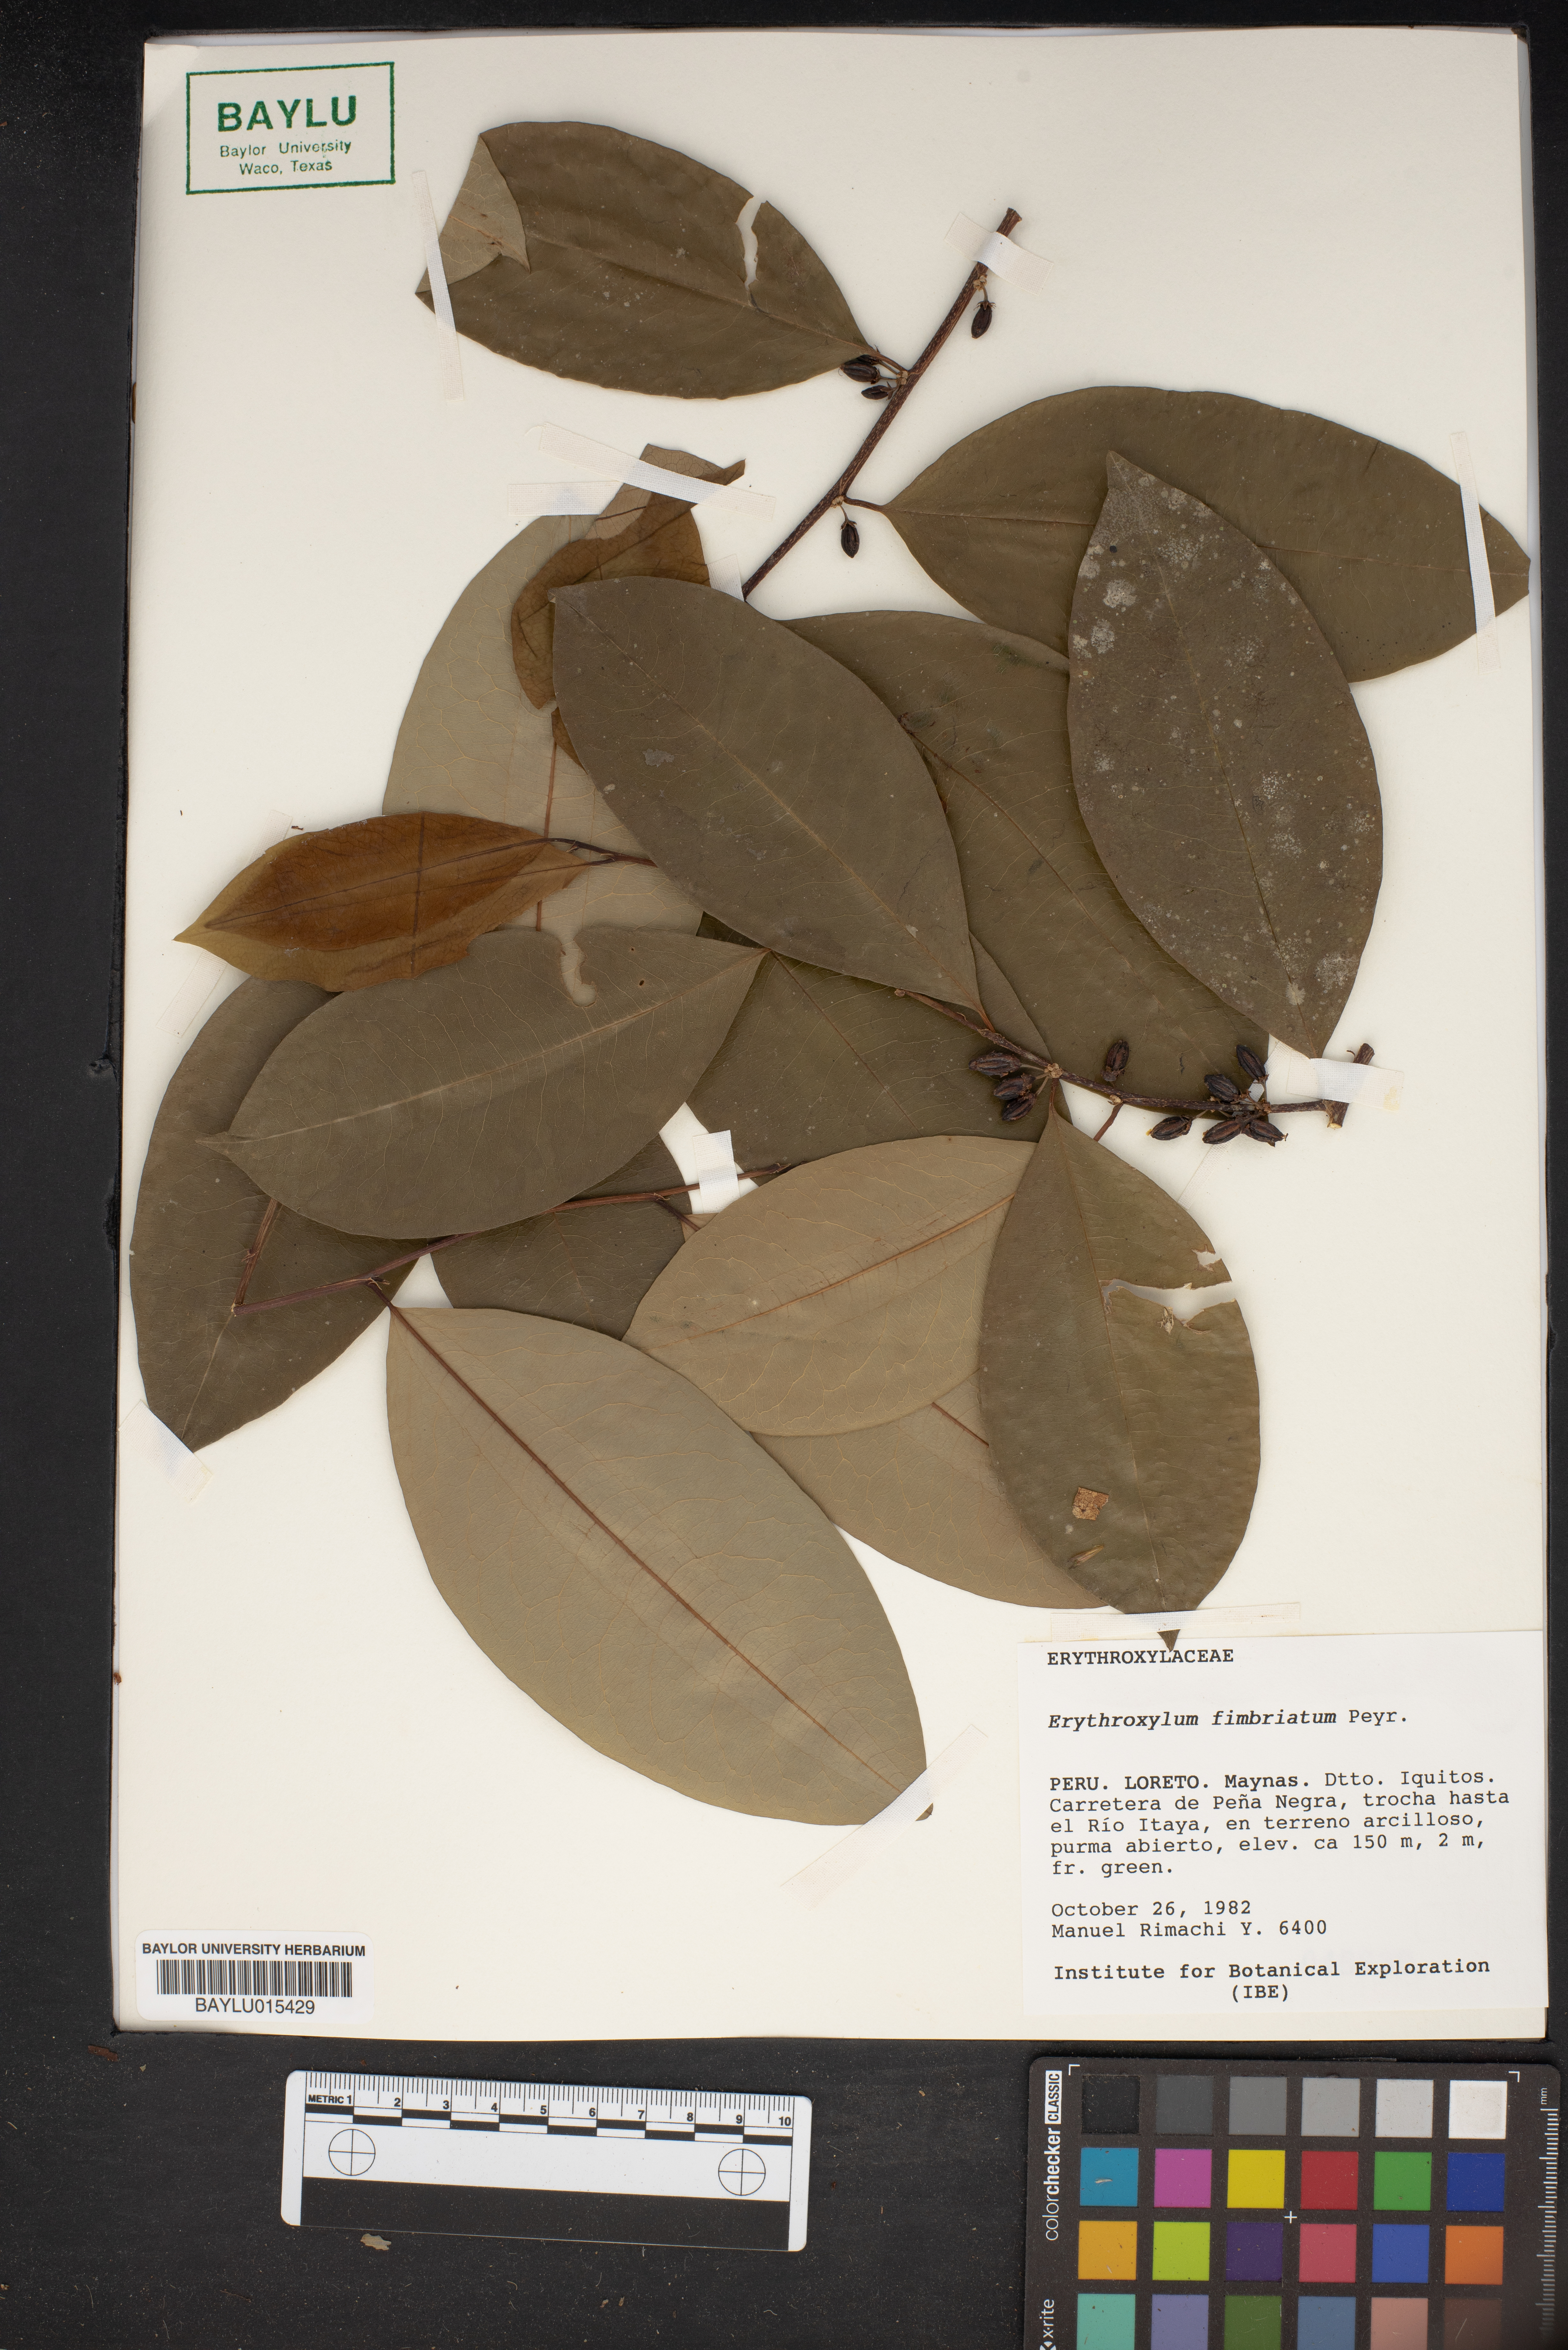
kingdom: Plantae
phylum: Tracheophyta
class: Magnoliopsida
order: Malpighiales
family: Erythroxylaceae
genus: Erythroxylum
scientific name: Erythroxylum fimbriatum
